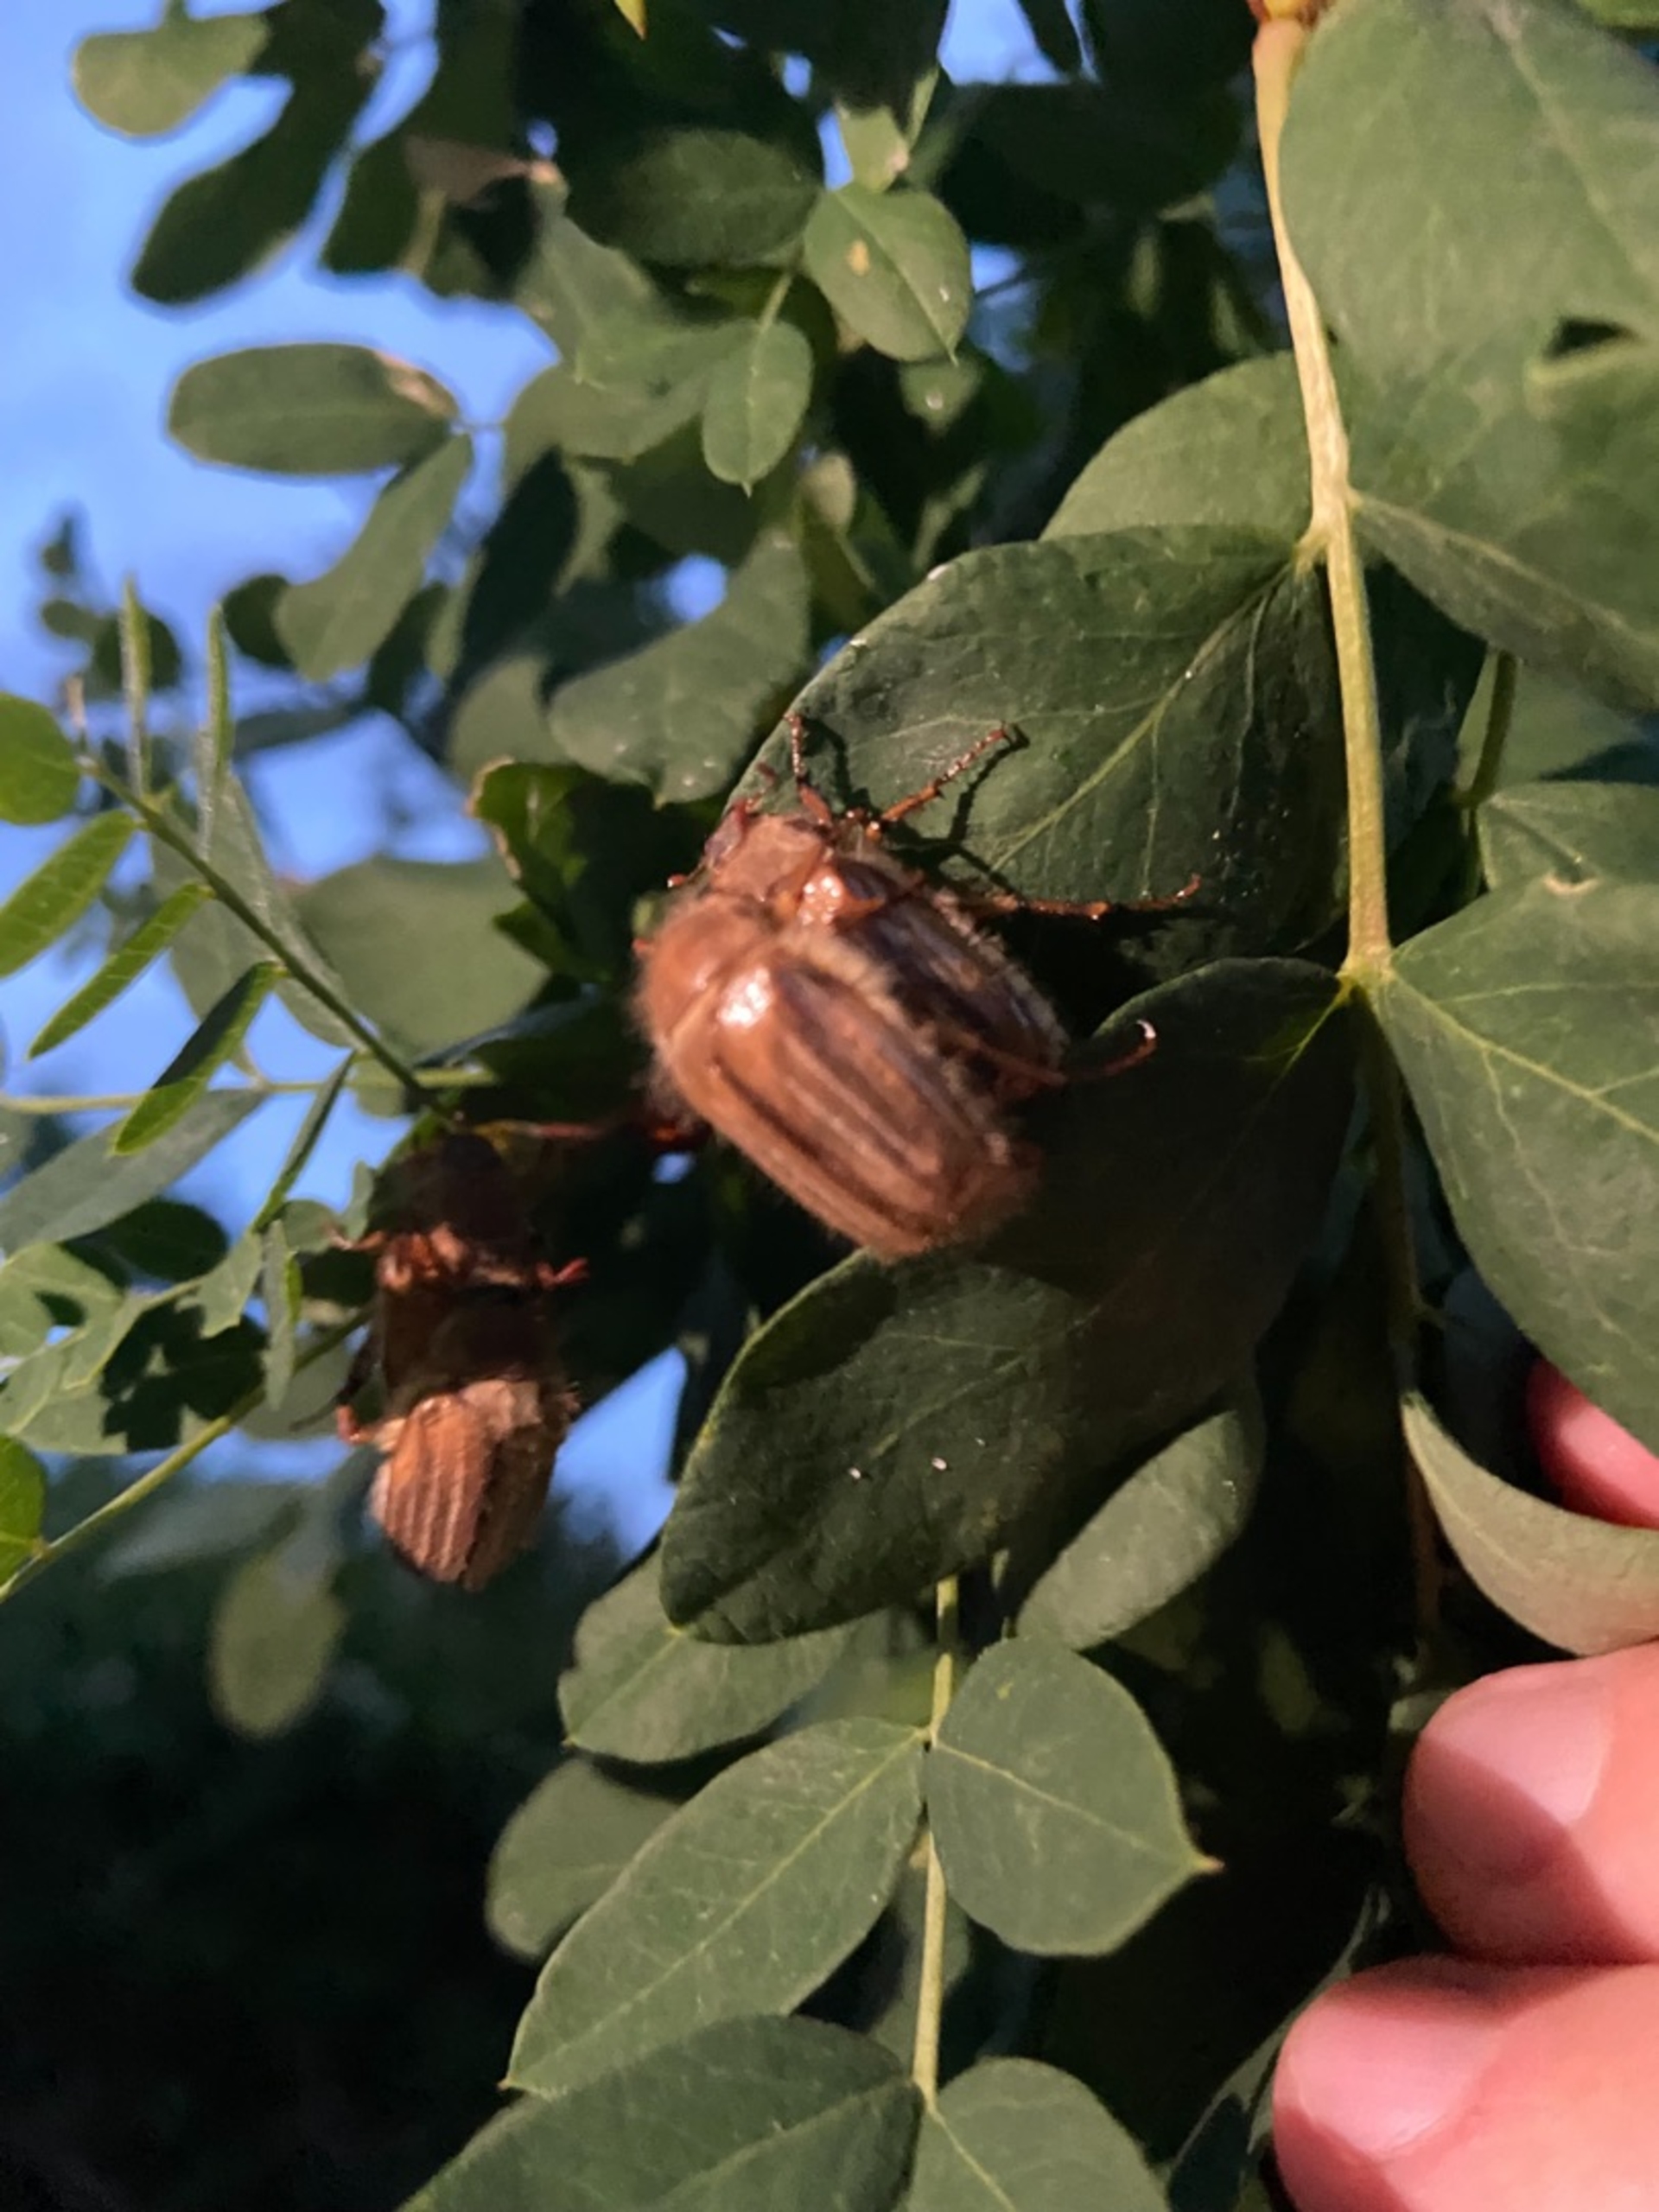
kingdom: Animalia
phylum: Arthropoda
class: Insecta
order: Coleoptera
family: Scarabaeidae
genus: Amphimallon
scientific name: Amphimallon solstitiale
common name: Sankthansoldenborre
